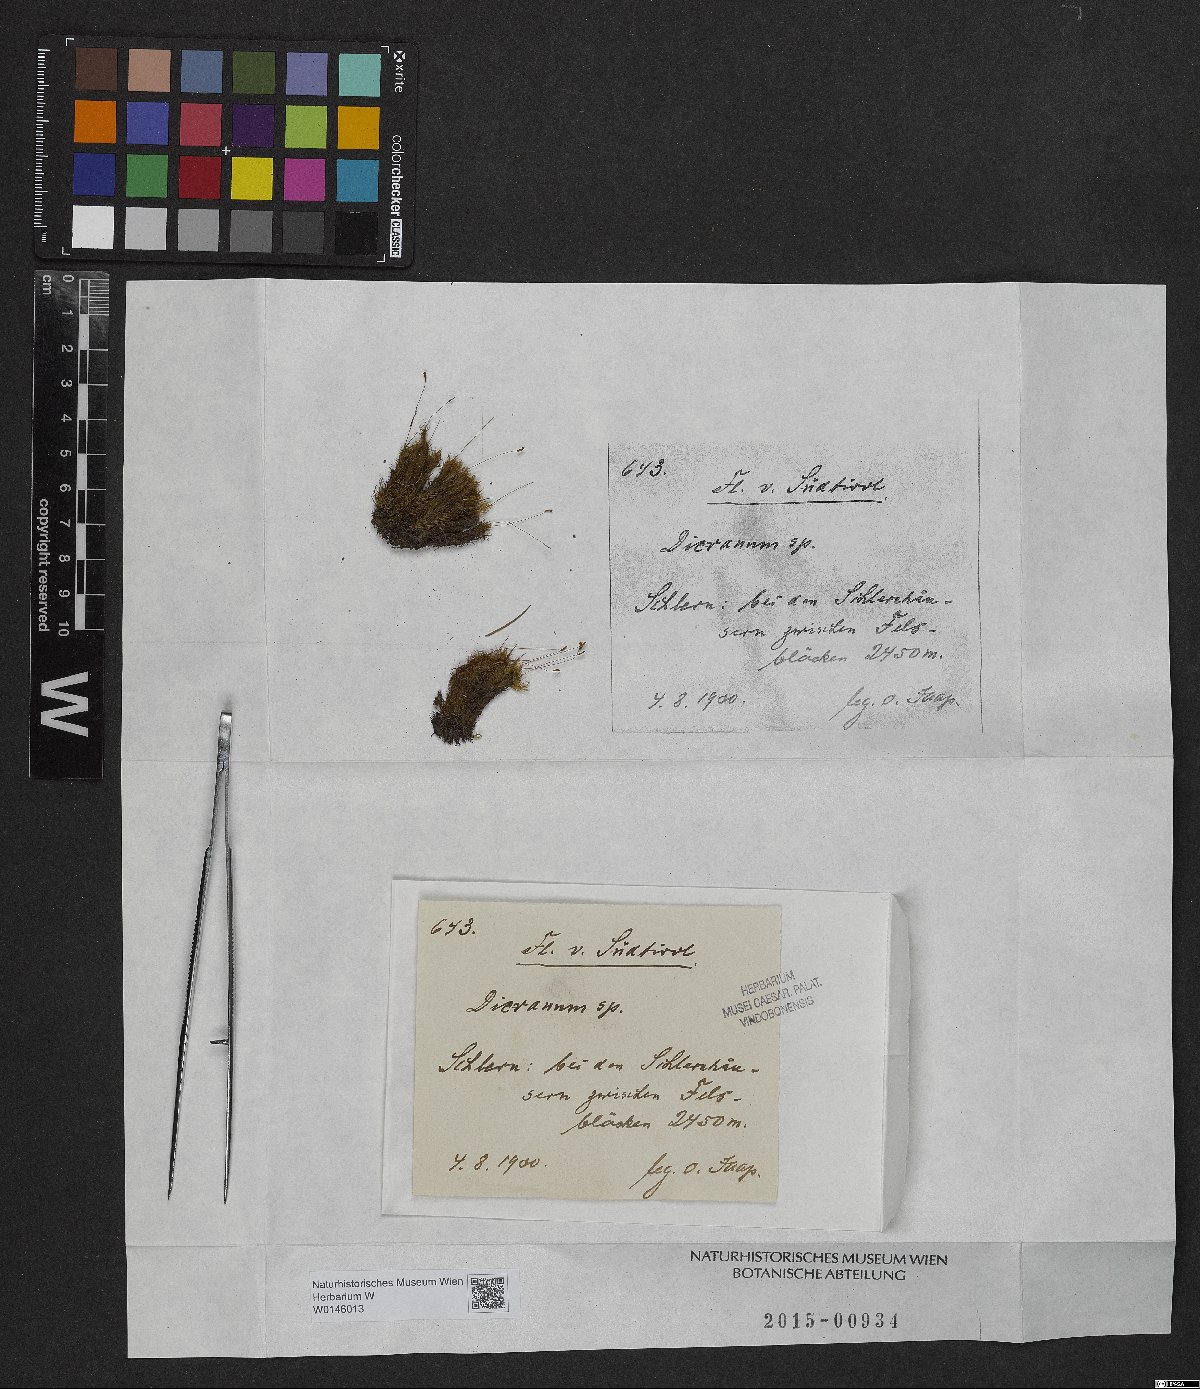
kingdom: Plantae
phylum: Bryophyta
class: Bryopsida
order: Dicranales
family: Dicranaceae
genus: Dicranum
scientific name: Dicranum
